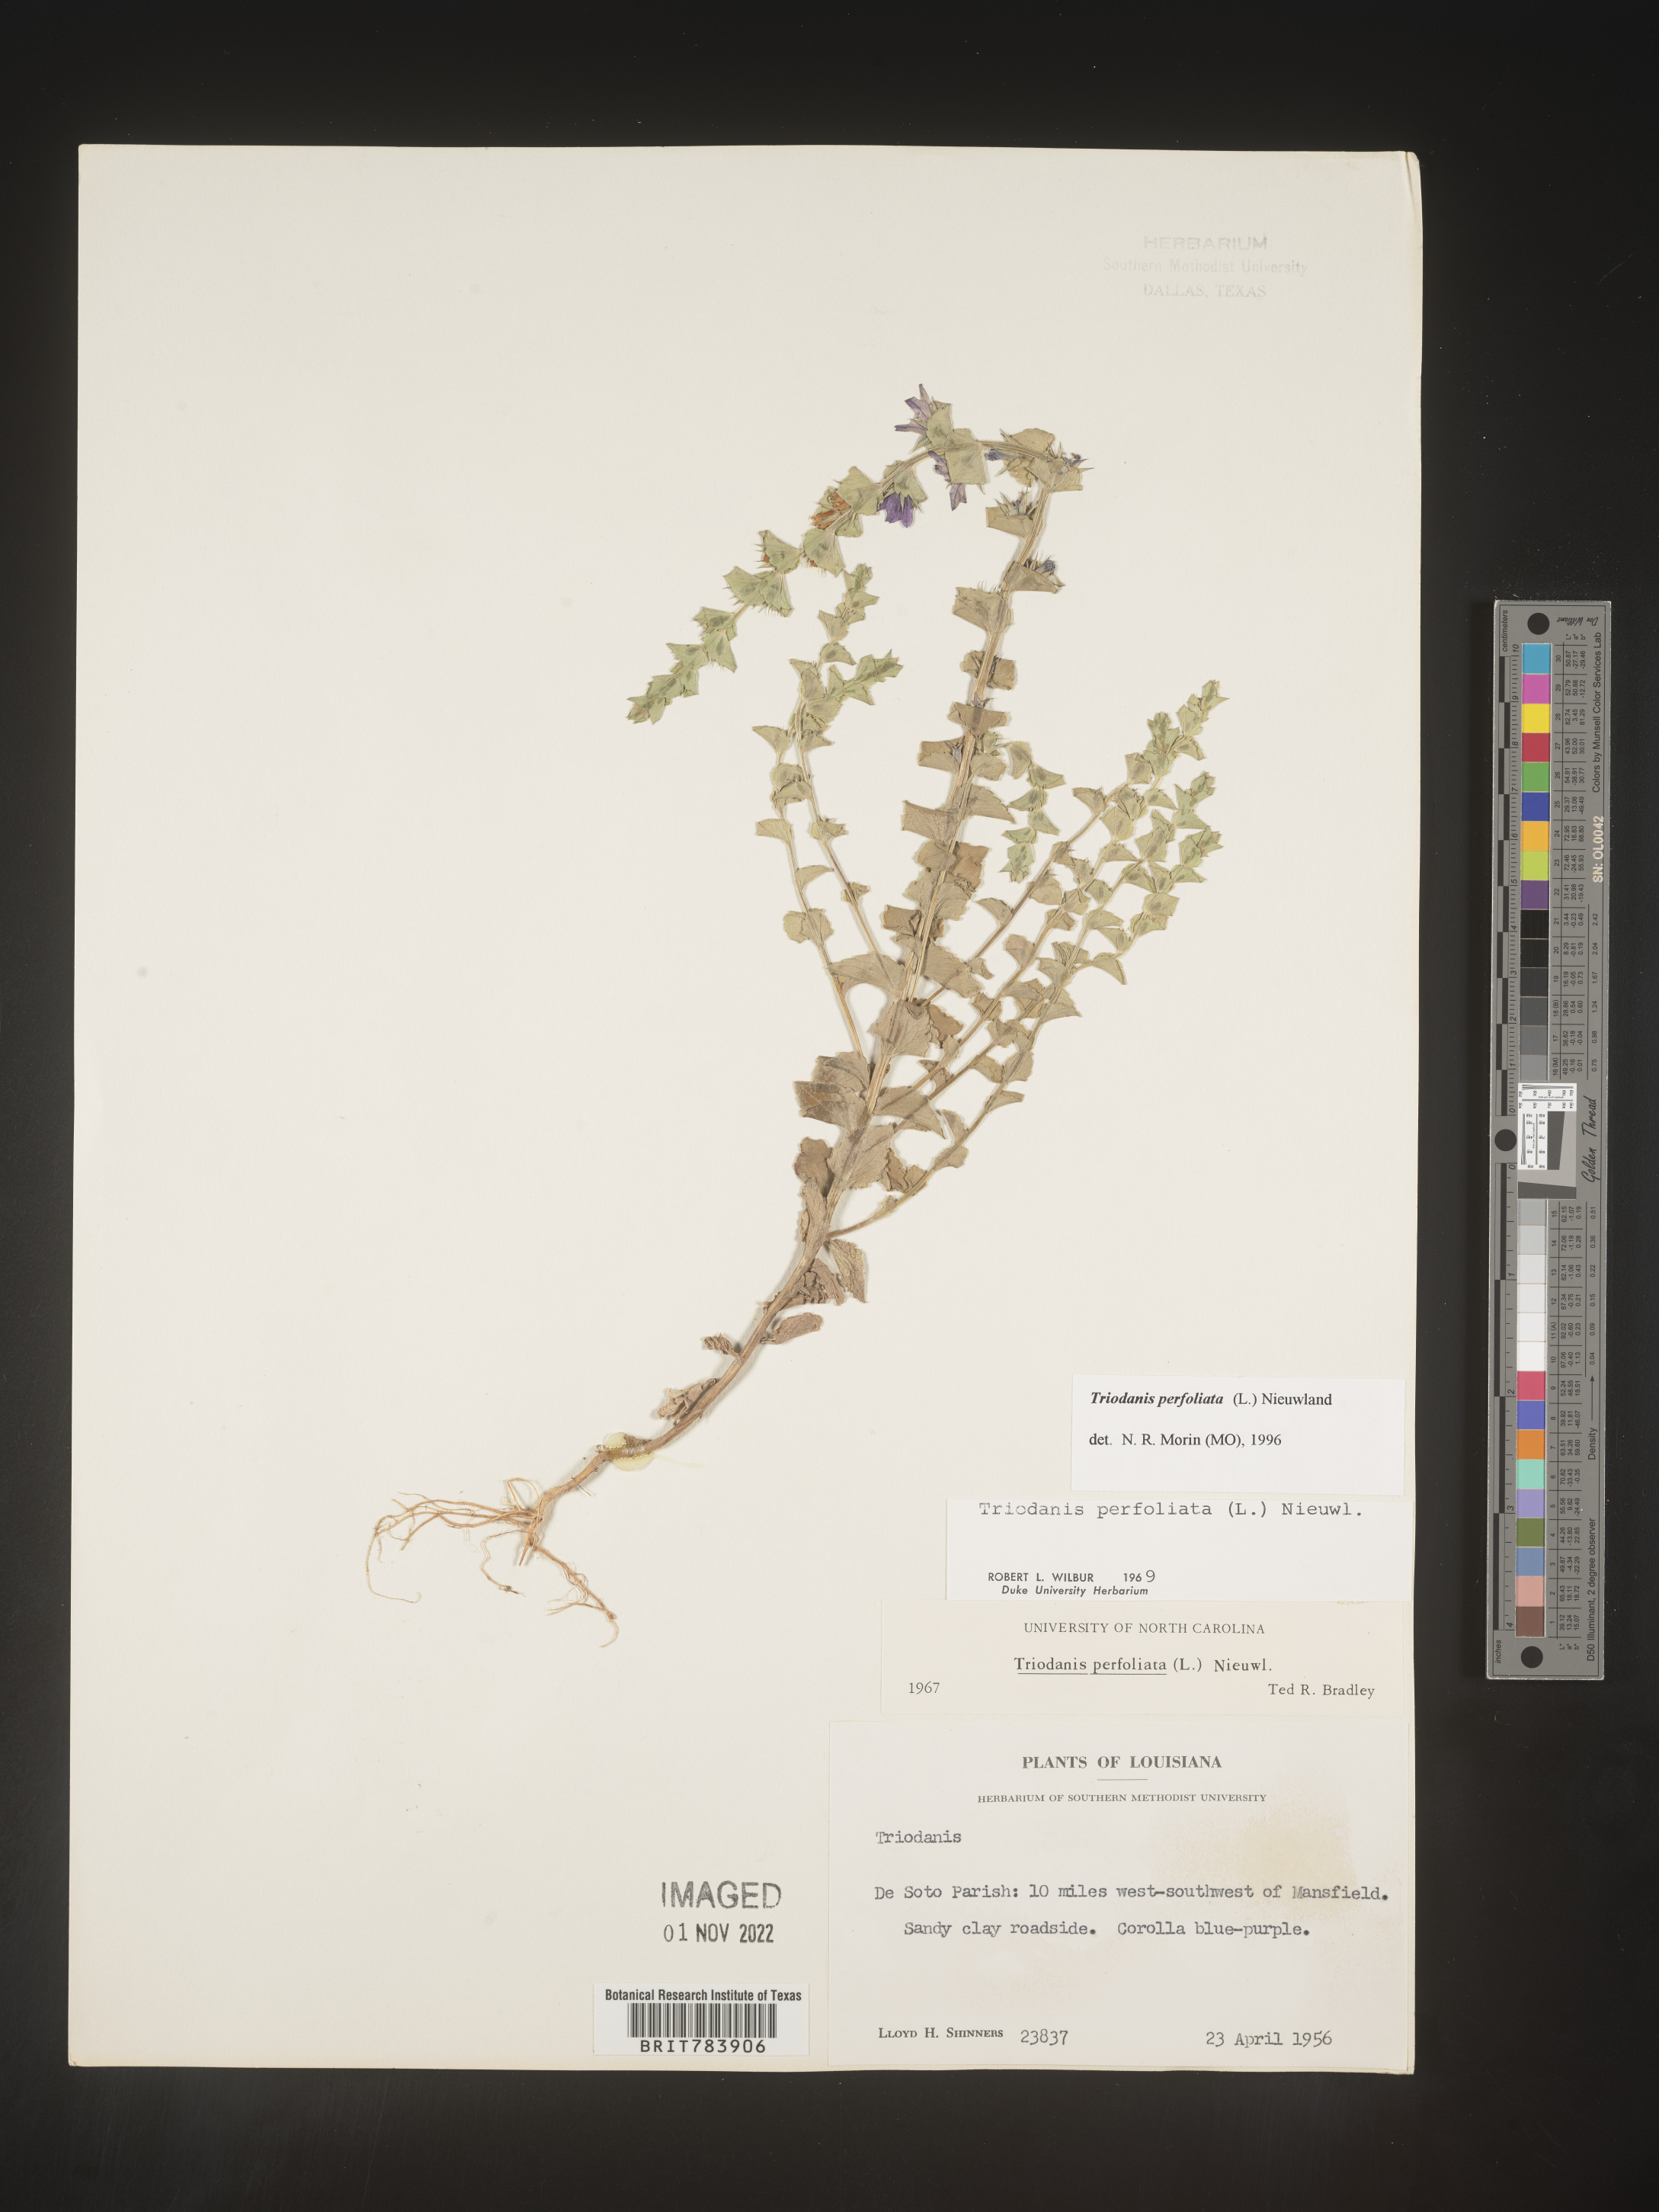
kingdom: Plantae
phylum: Tracheophyta
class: Magnoliopsida
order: Asterales
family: Campanulaceae
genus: Triodanis
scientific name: Triodanis perfoliata
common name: Clasping venus' looking-glass
